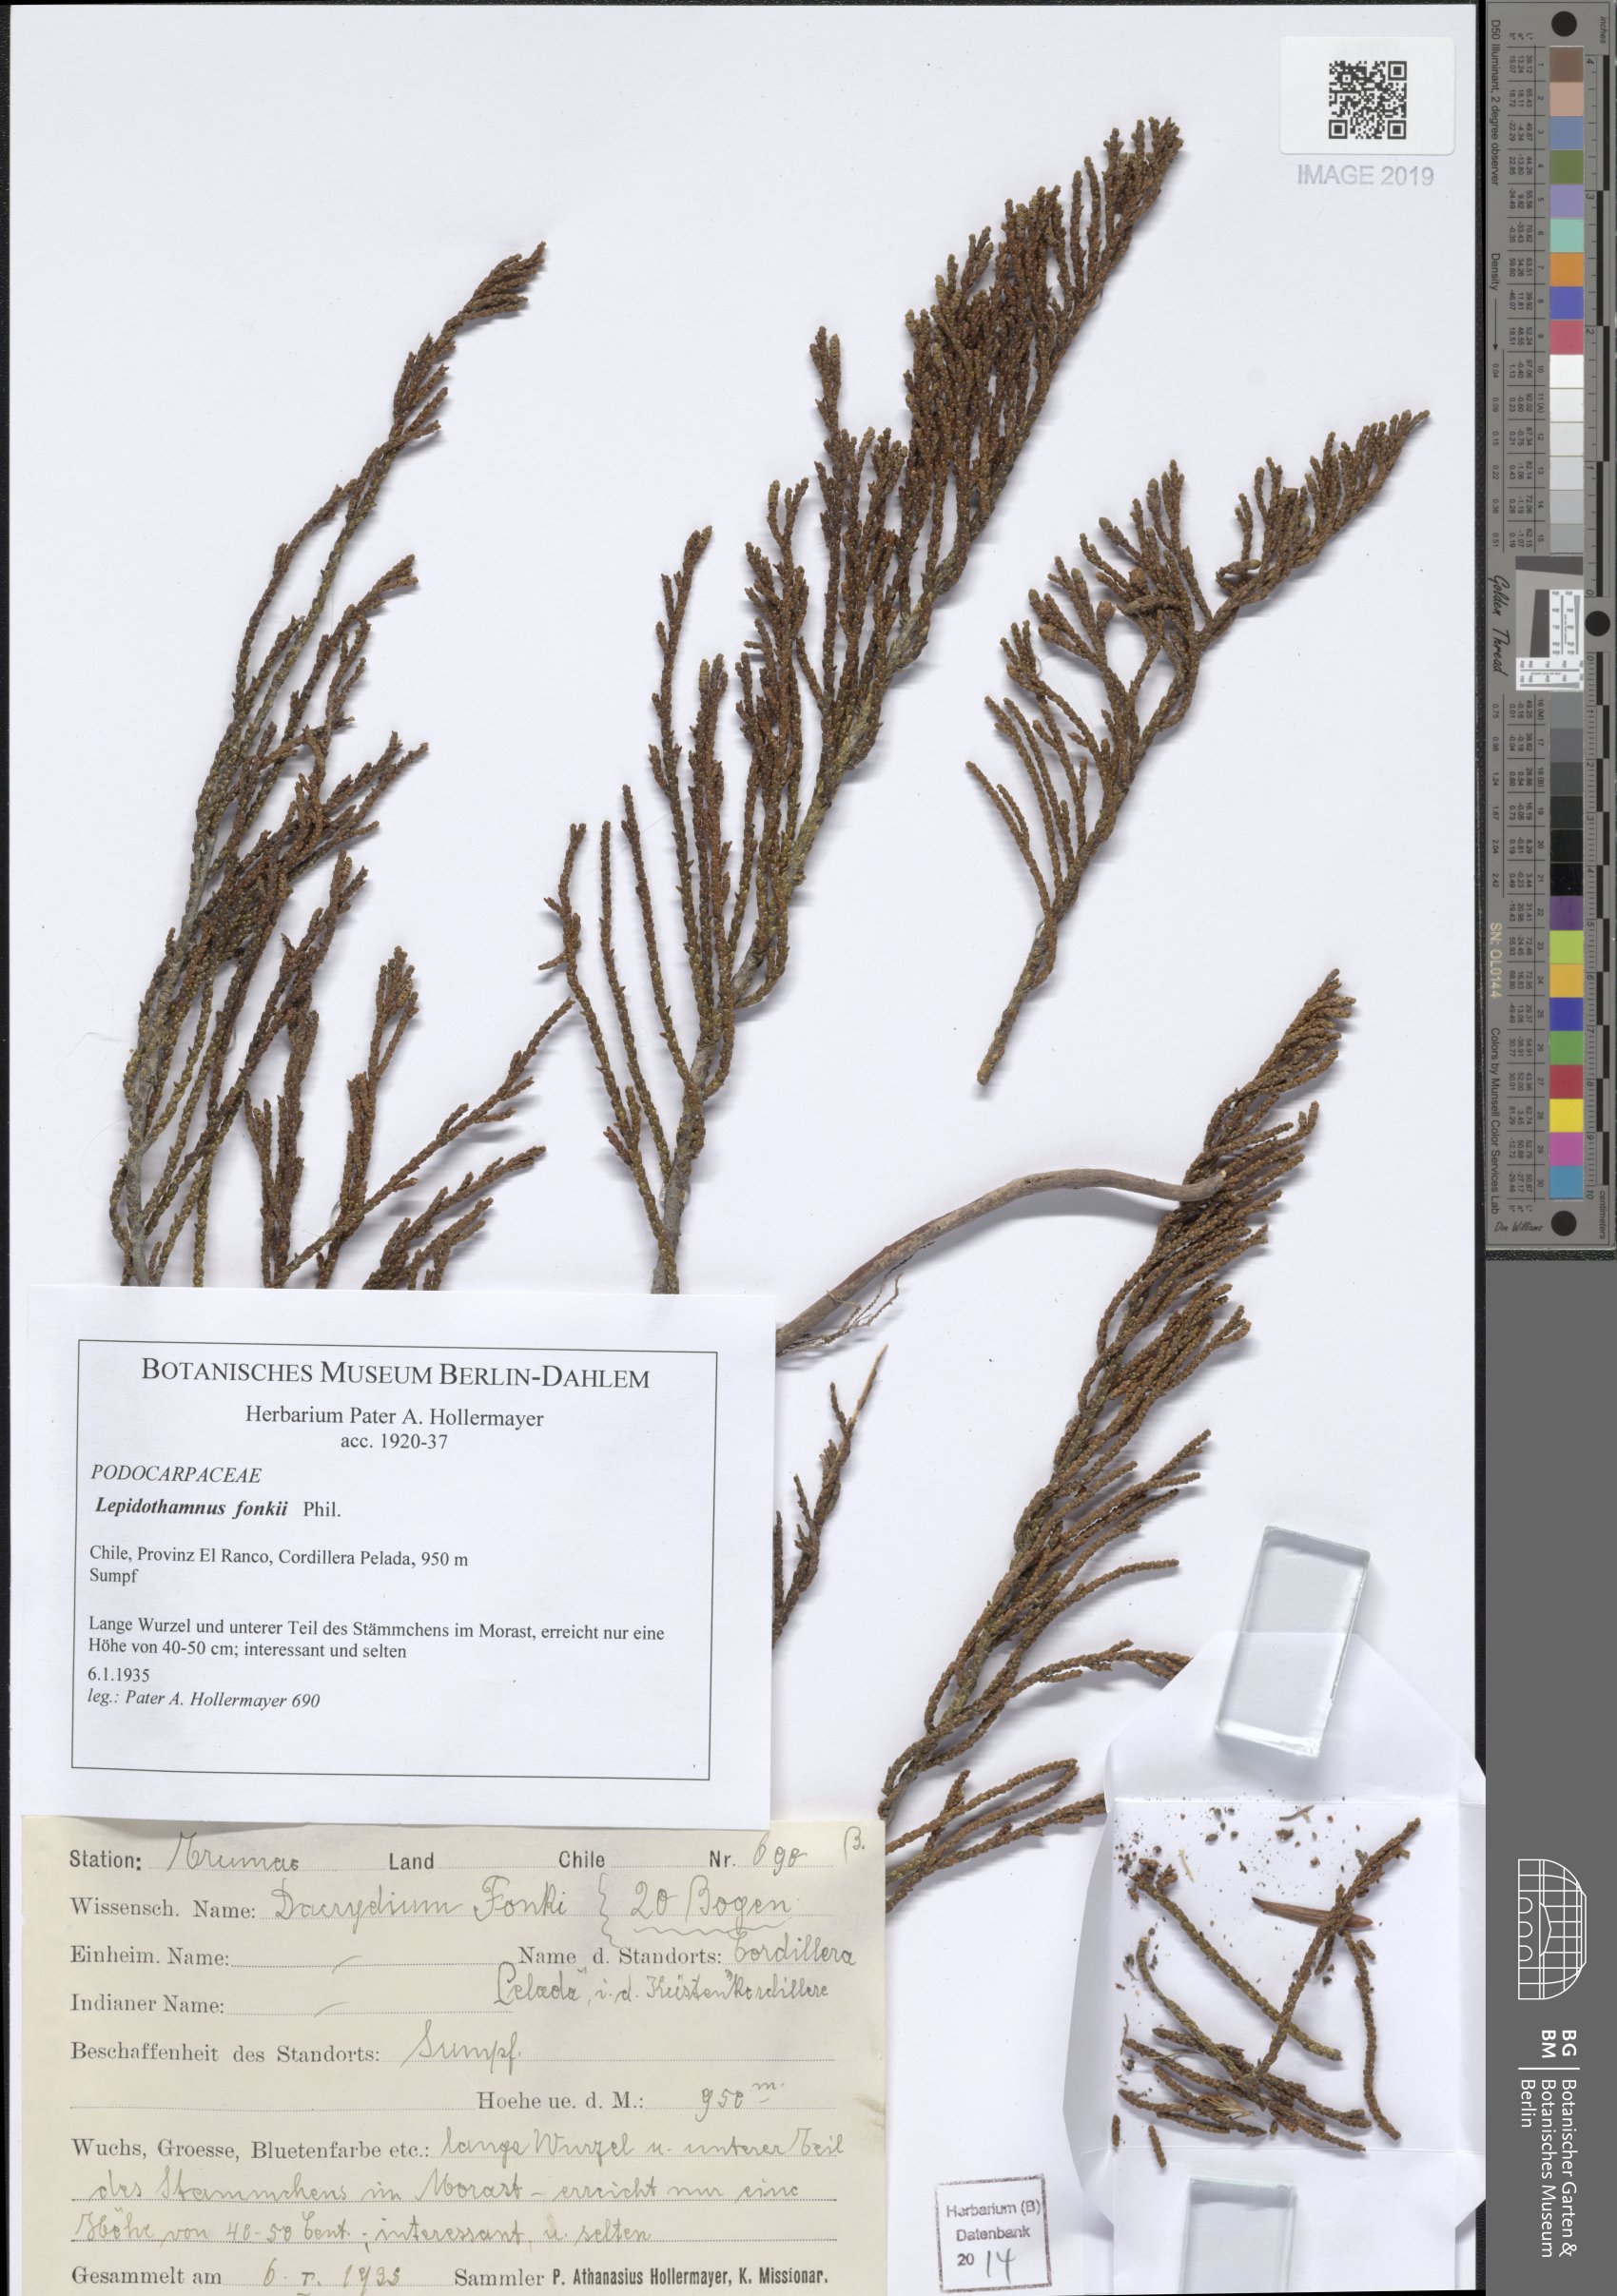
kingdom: Plantae
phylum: Tracheophyta
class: Pinopsida
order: Pinales
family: Podocarpaceae
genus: Lepidothamnus
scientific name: Lepidothamnus fonkii
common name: Chilean rimu
